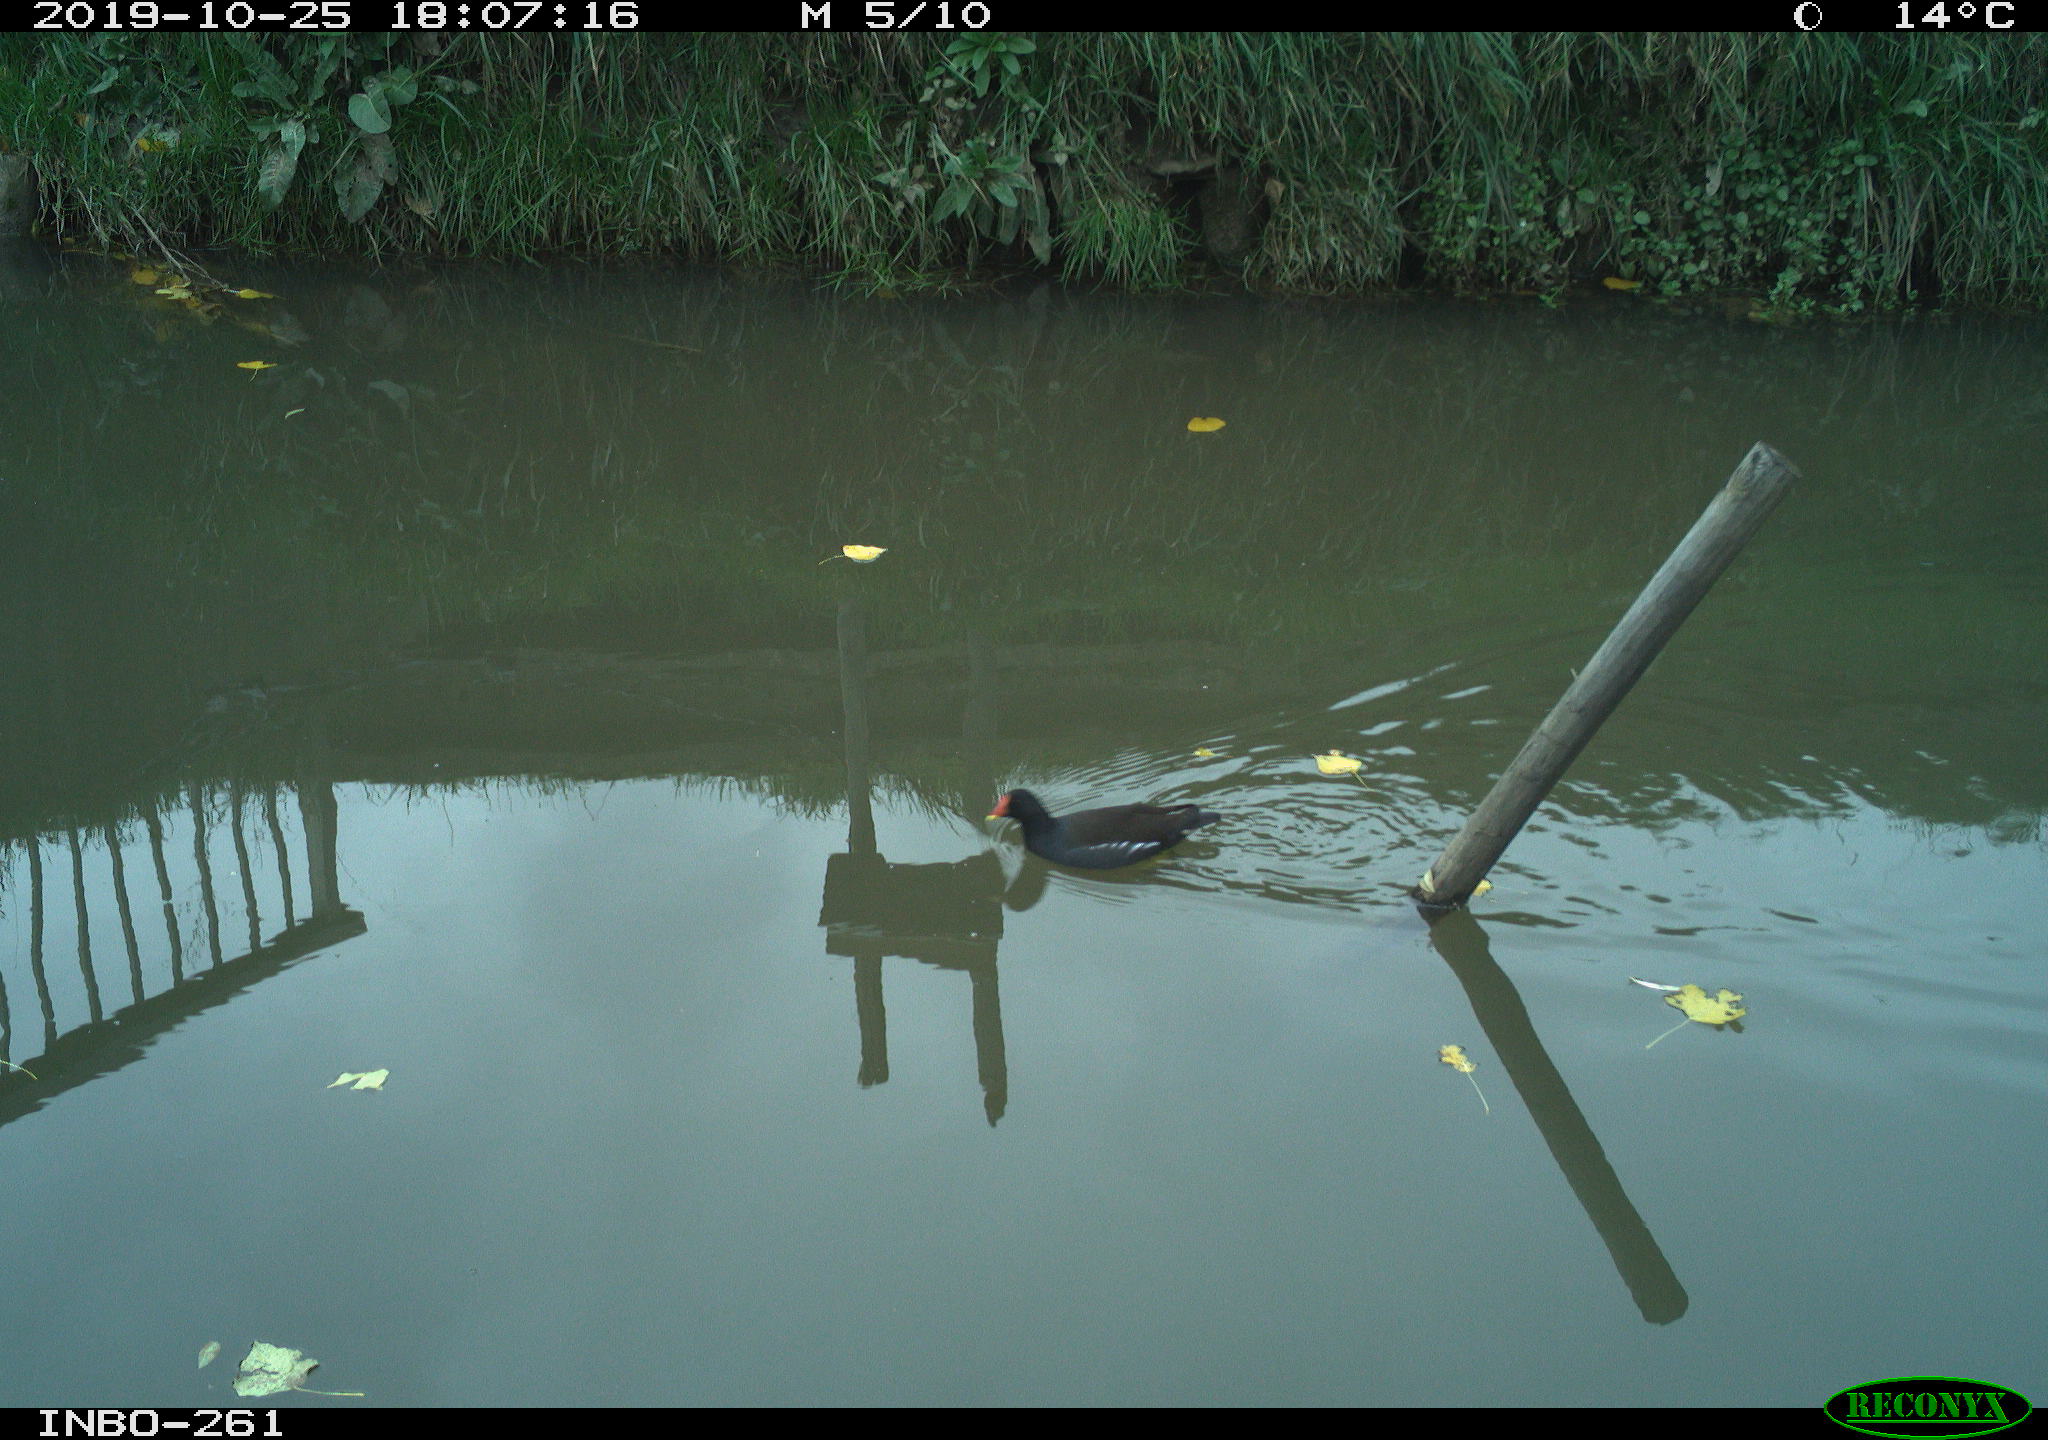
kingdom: Animalia
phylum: Chordata
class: Aves
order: Gruiformes
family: Rallidae
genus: Gallinula
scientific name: Gallinula chloropus
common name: Common moorhen
